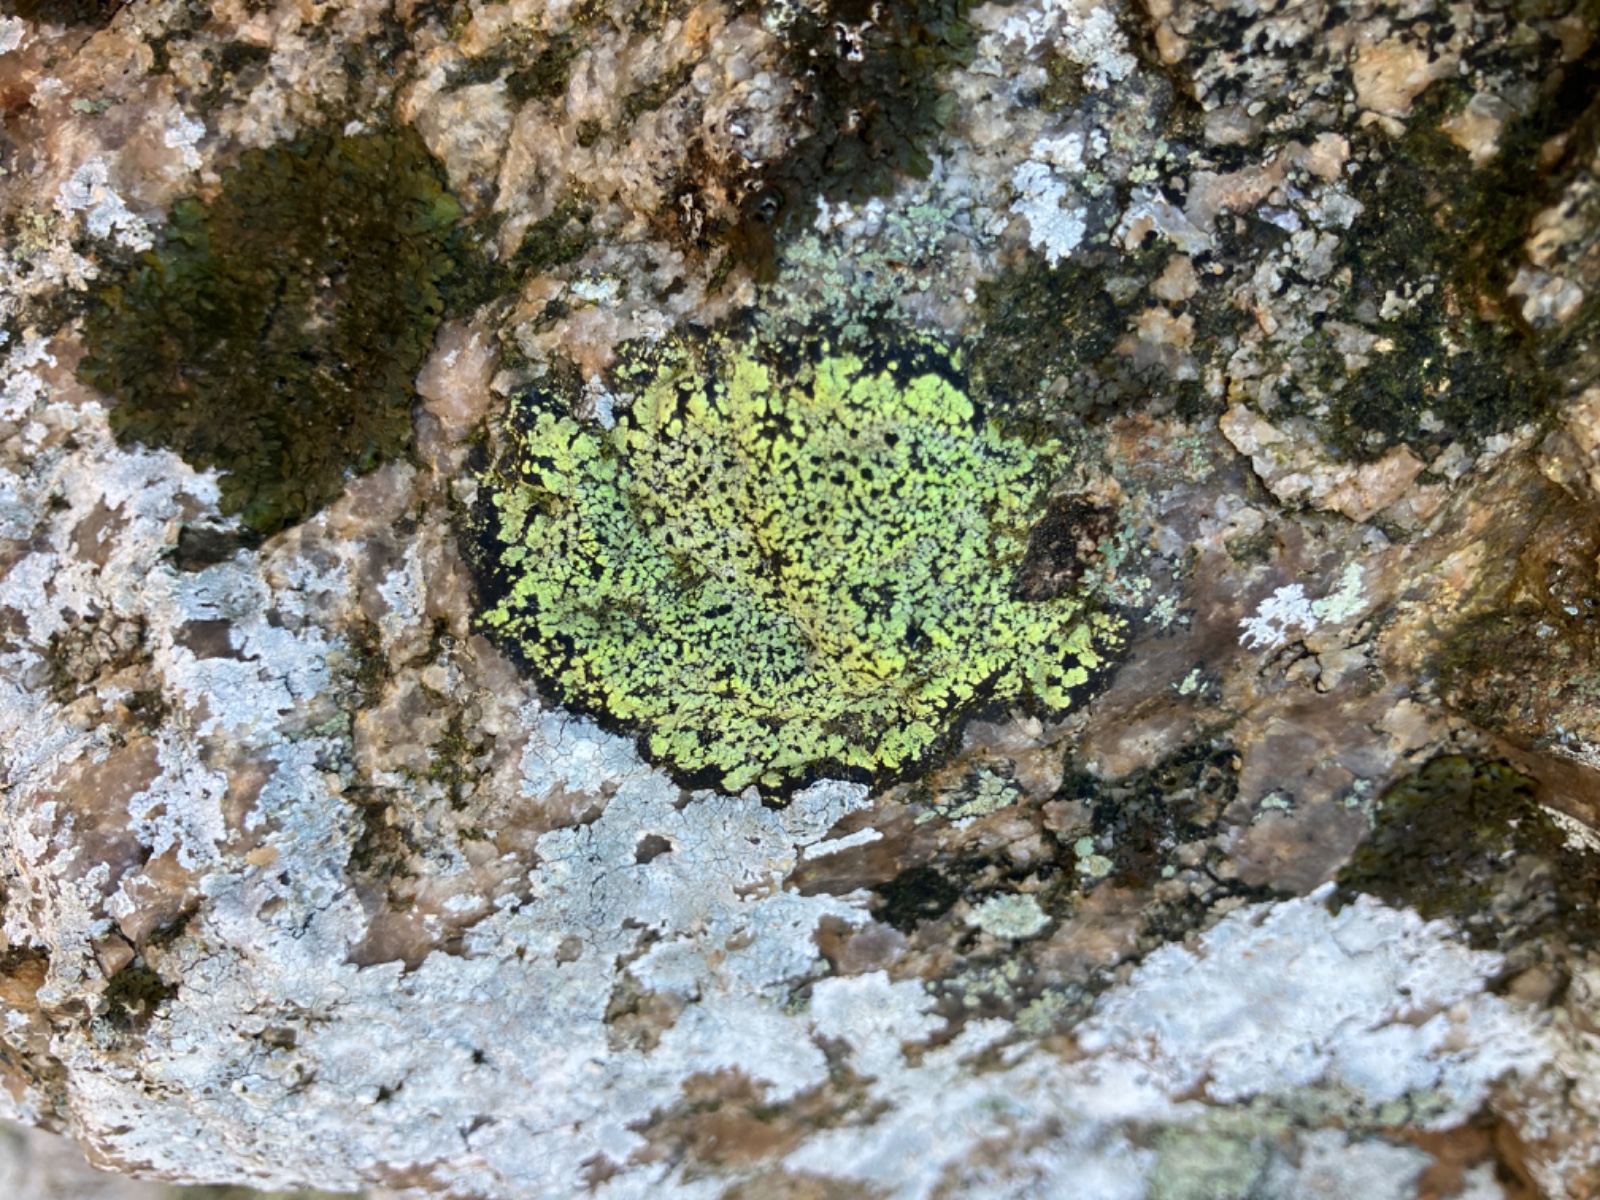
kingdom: Fungi
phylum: Ascomycota
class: Lecanoromycetes
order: Rhizocarpales
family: Rhizocarpaceae
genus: Rhizocarpon
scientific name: Rhizocarpon geographicum
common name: gulgrøn landkortlav
